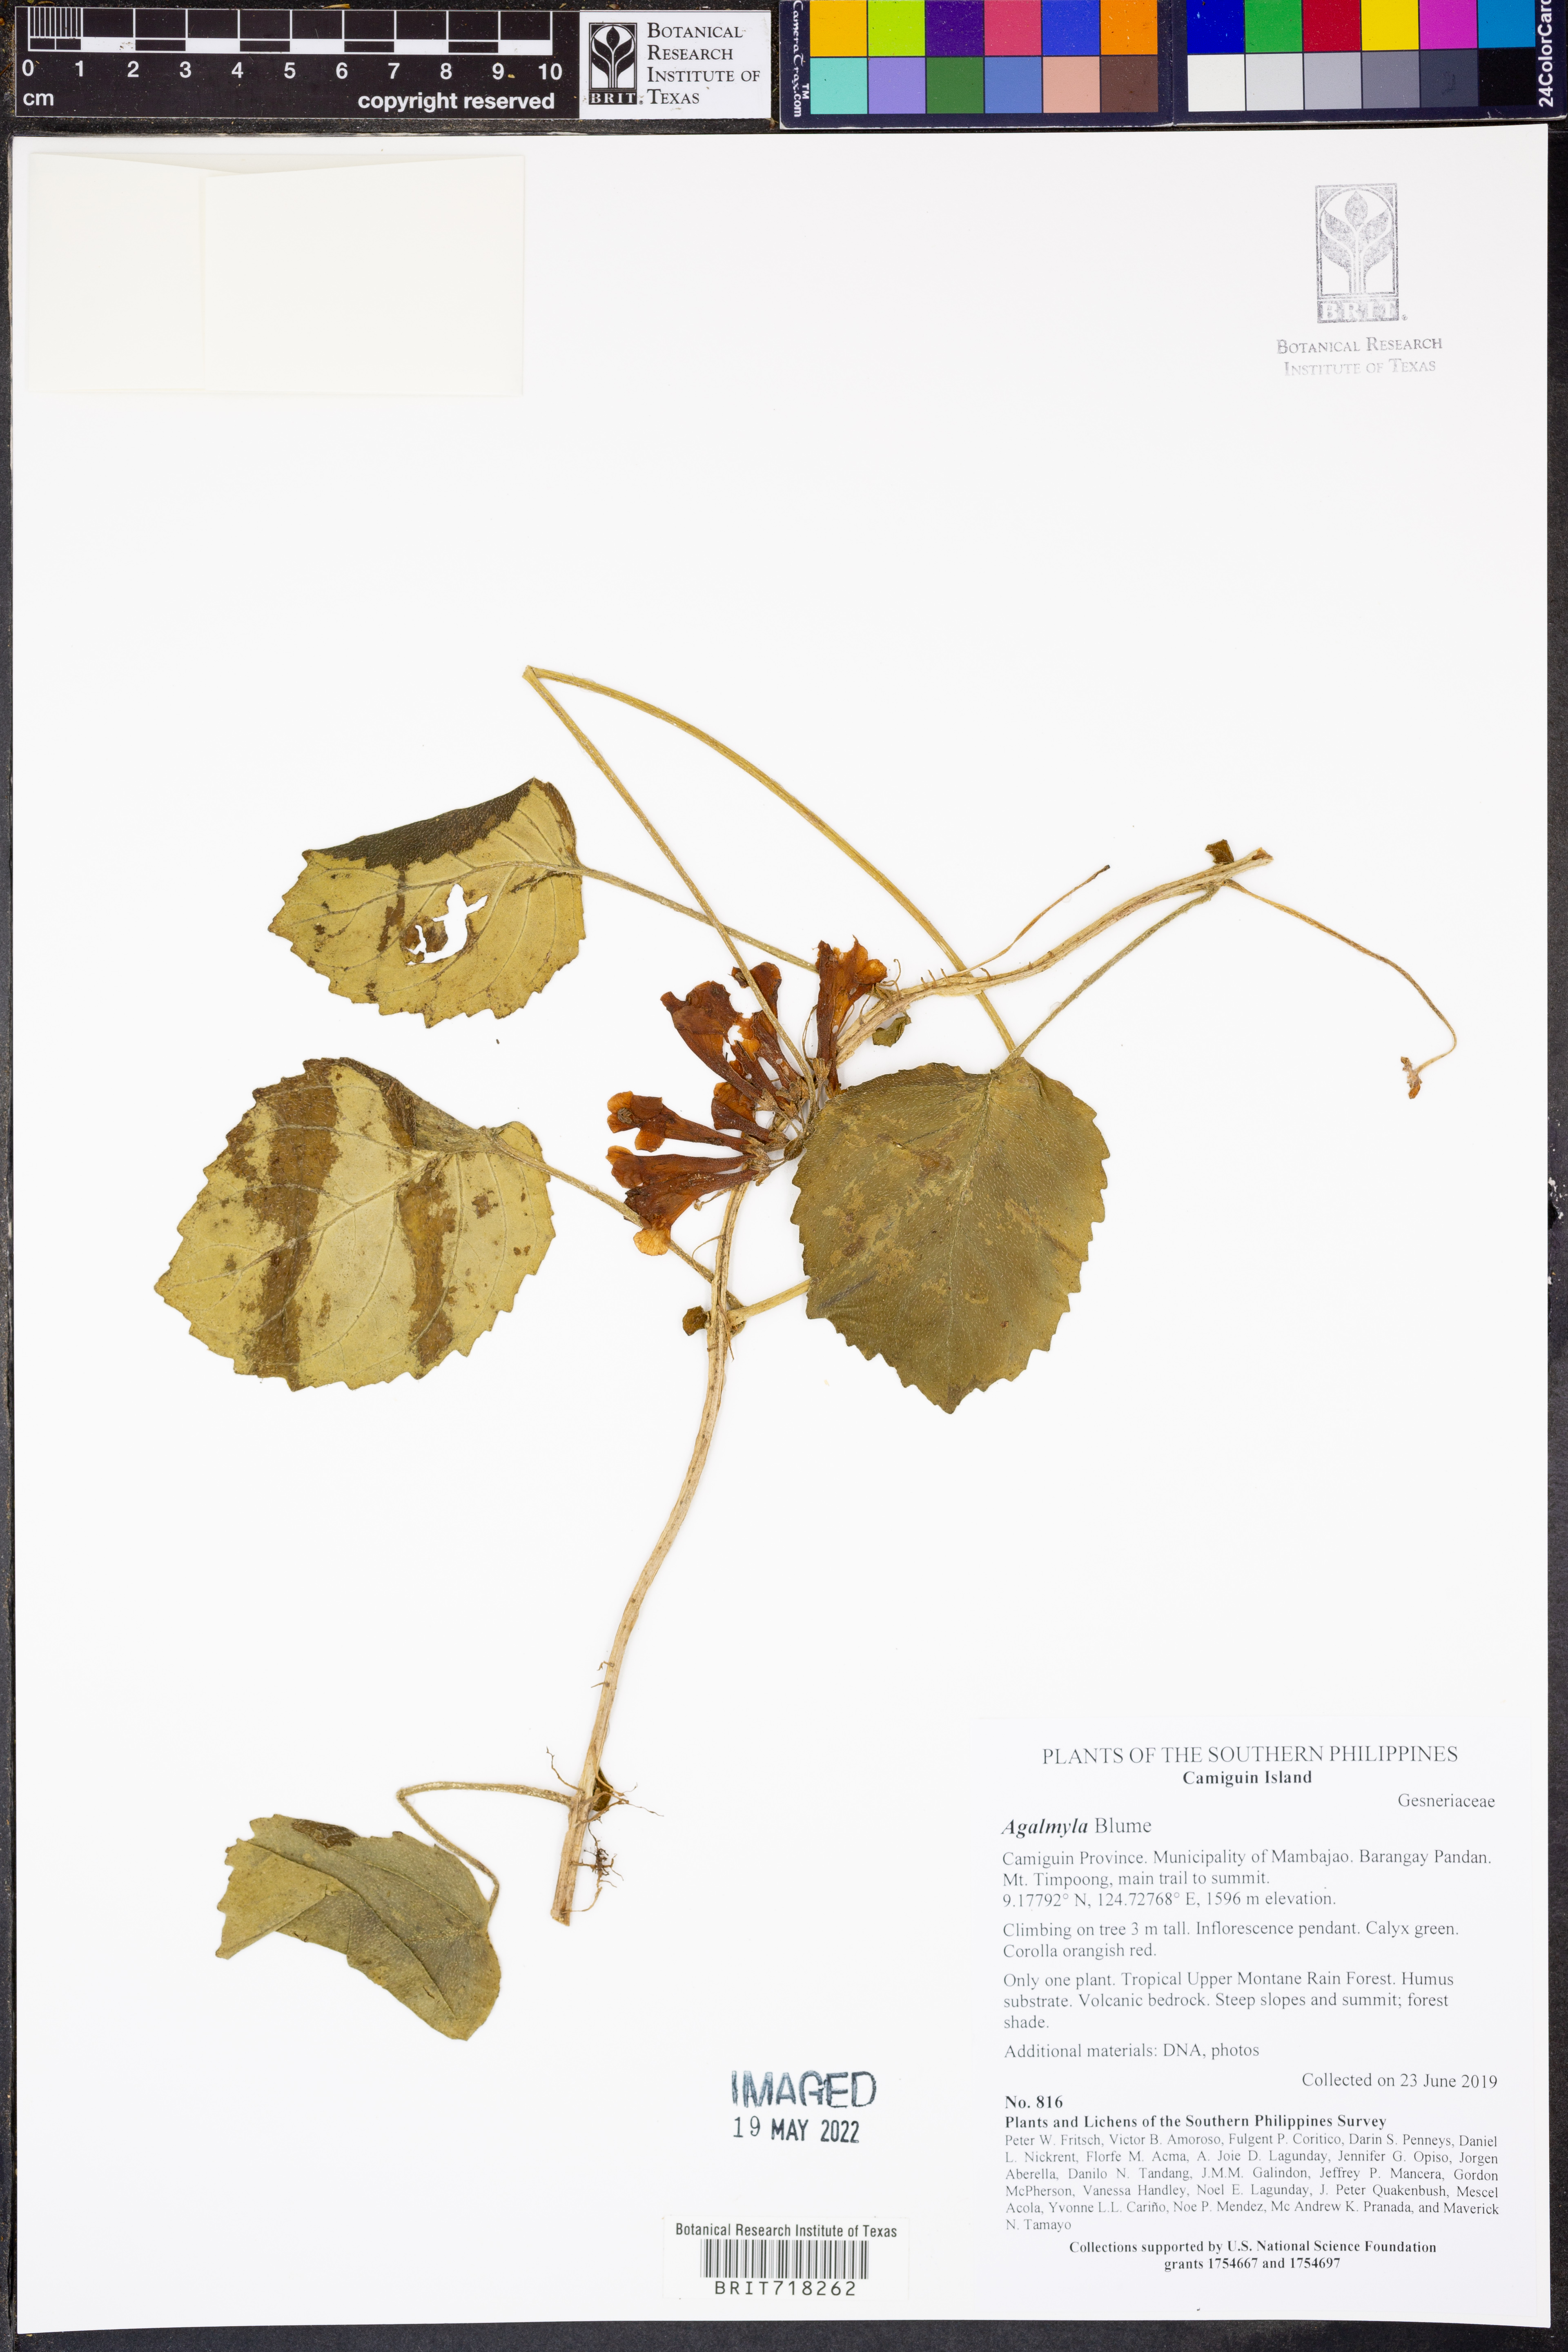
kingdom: Plantae
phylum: Tracheophyta
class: Magnoliopsida
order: Lamiales
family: Gesneriaceae
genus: Agalmyla
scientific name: Agalmyla
